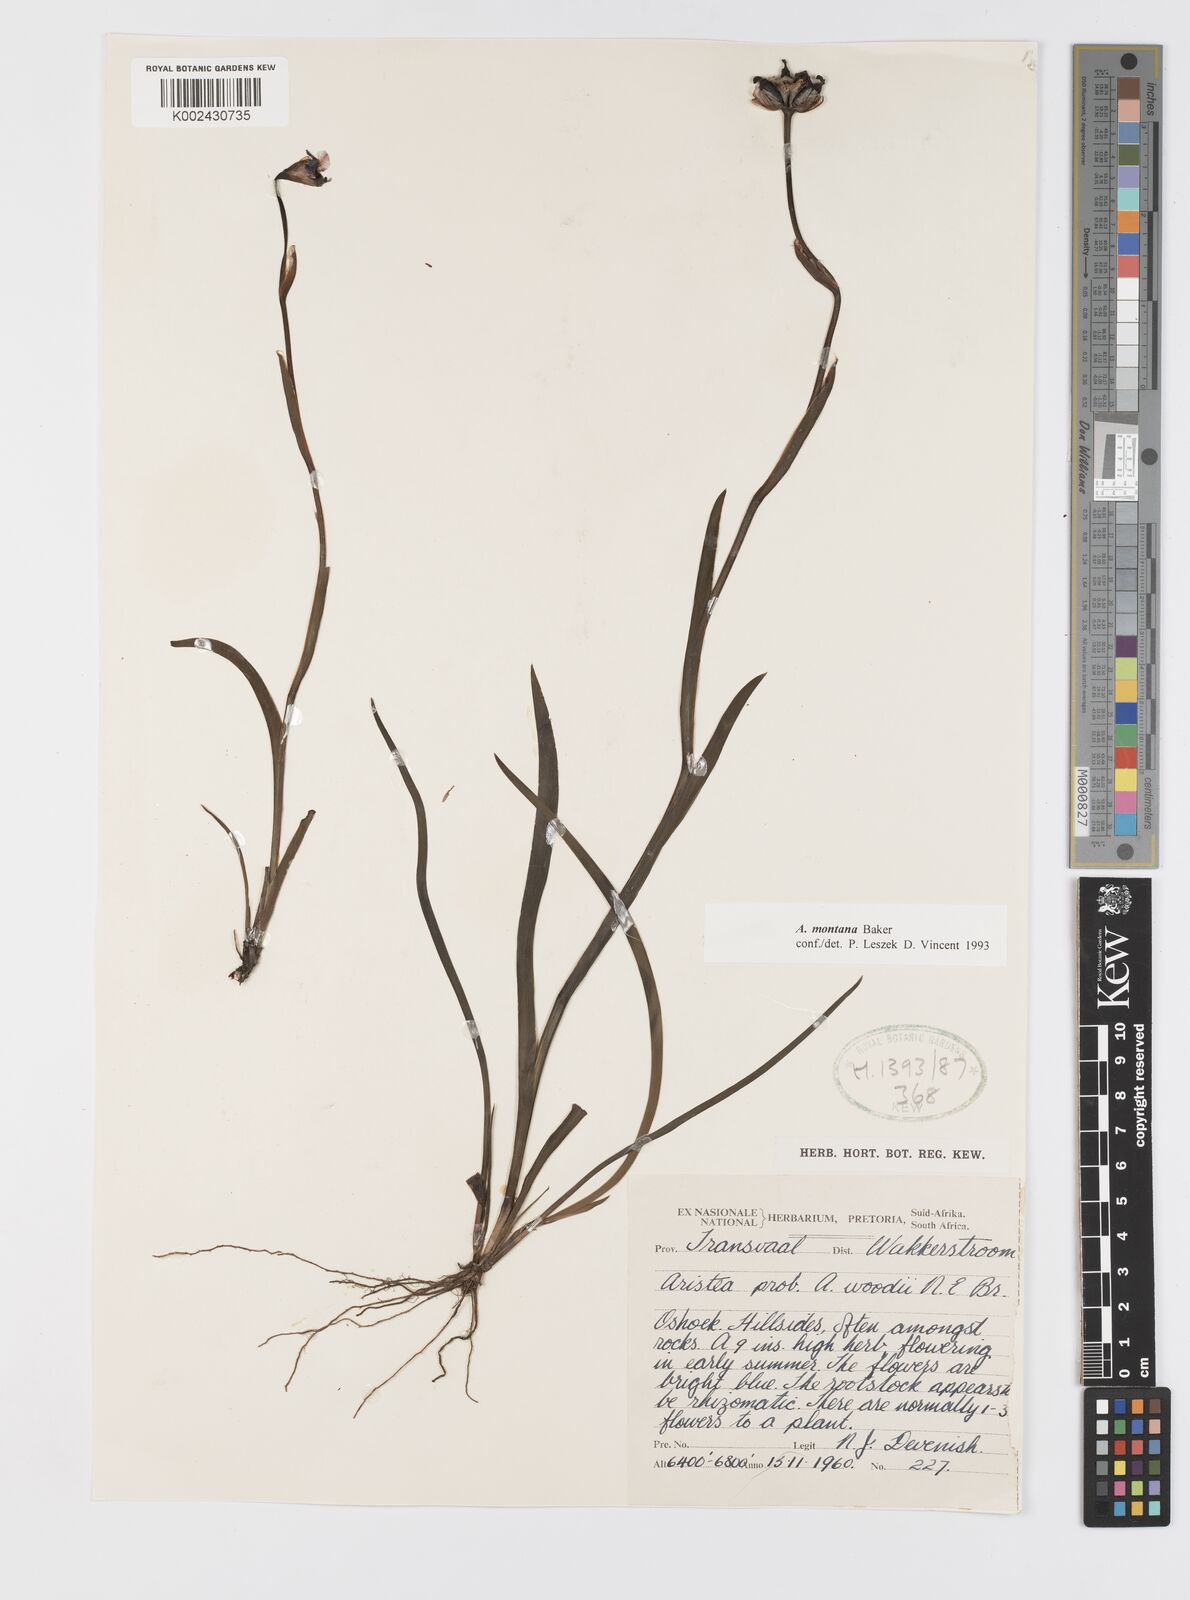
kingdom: Plantae
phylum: Tracheophyta
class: Liliopsida
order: Asparagales
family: Iridaceae
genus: Aristea
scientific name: Aristea montana
